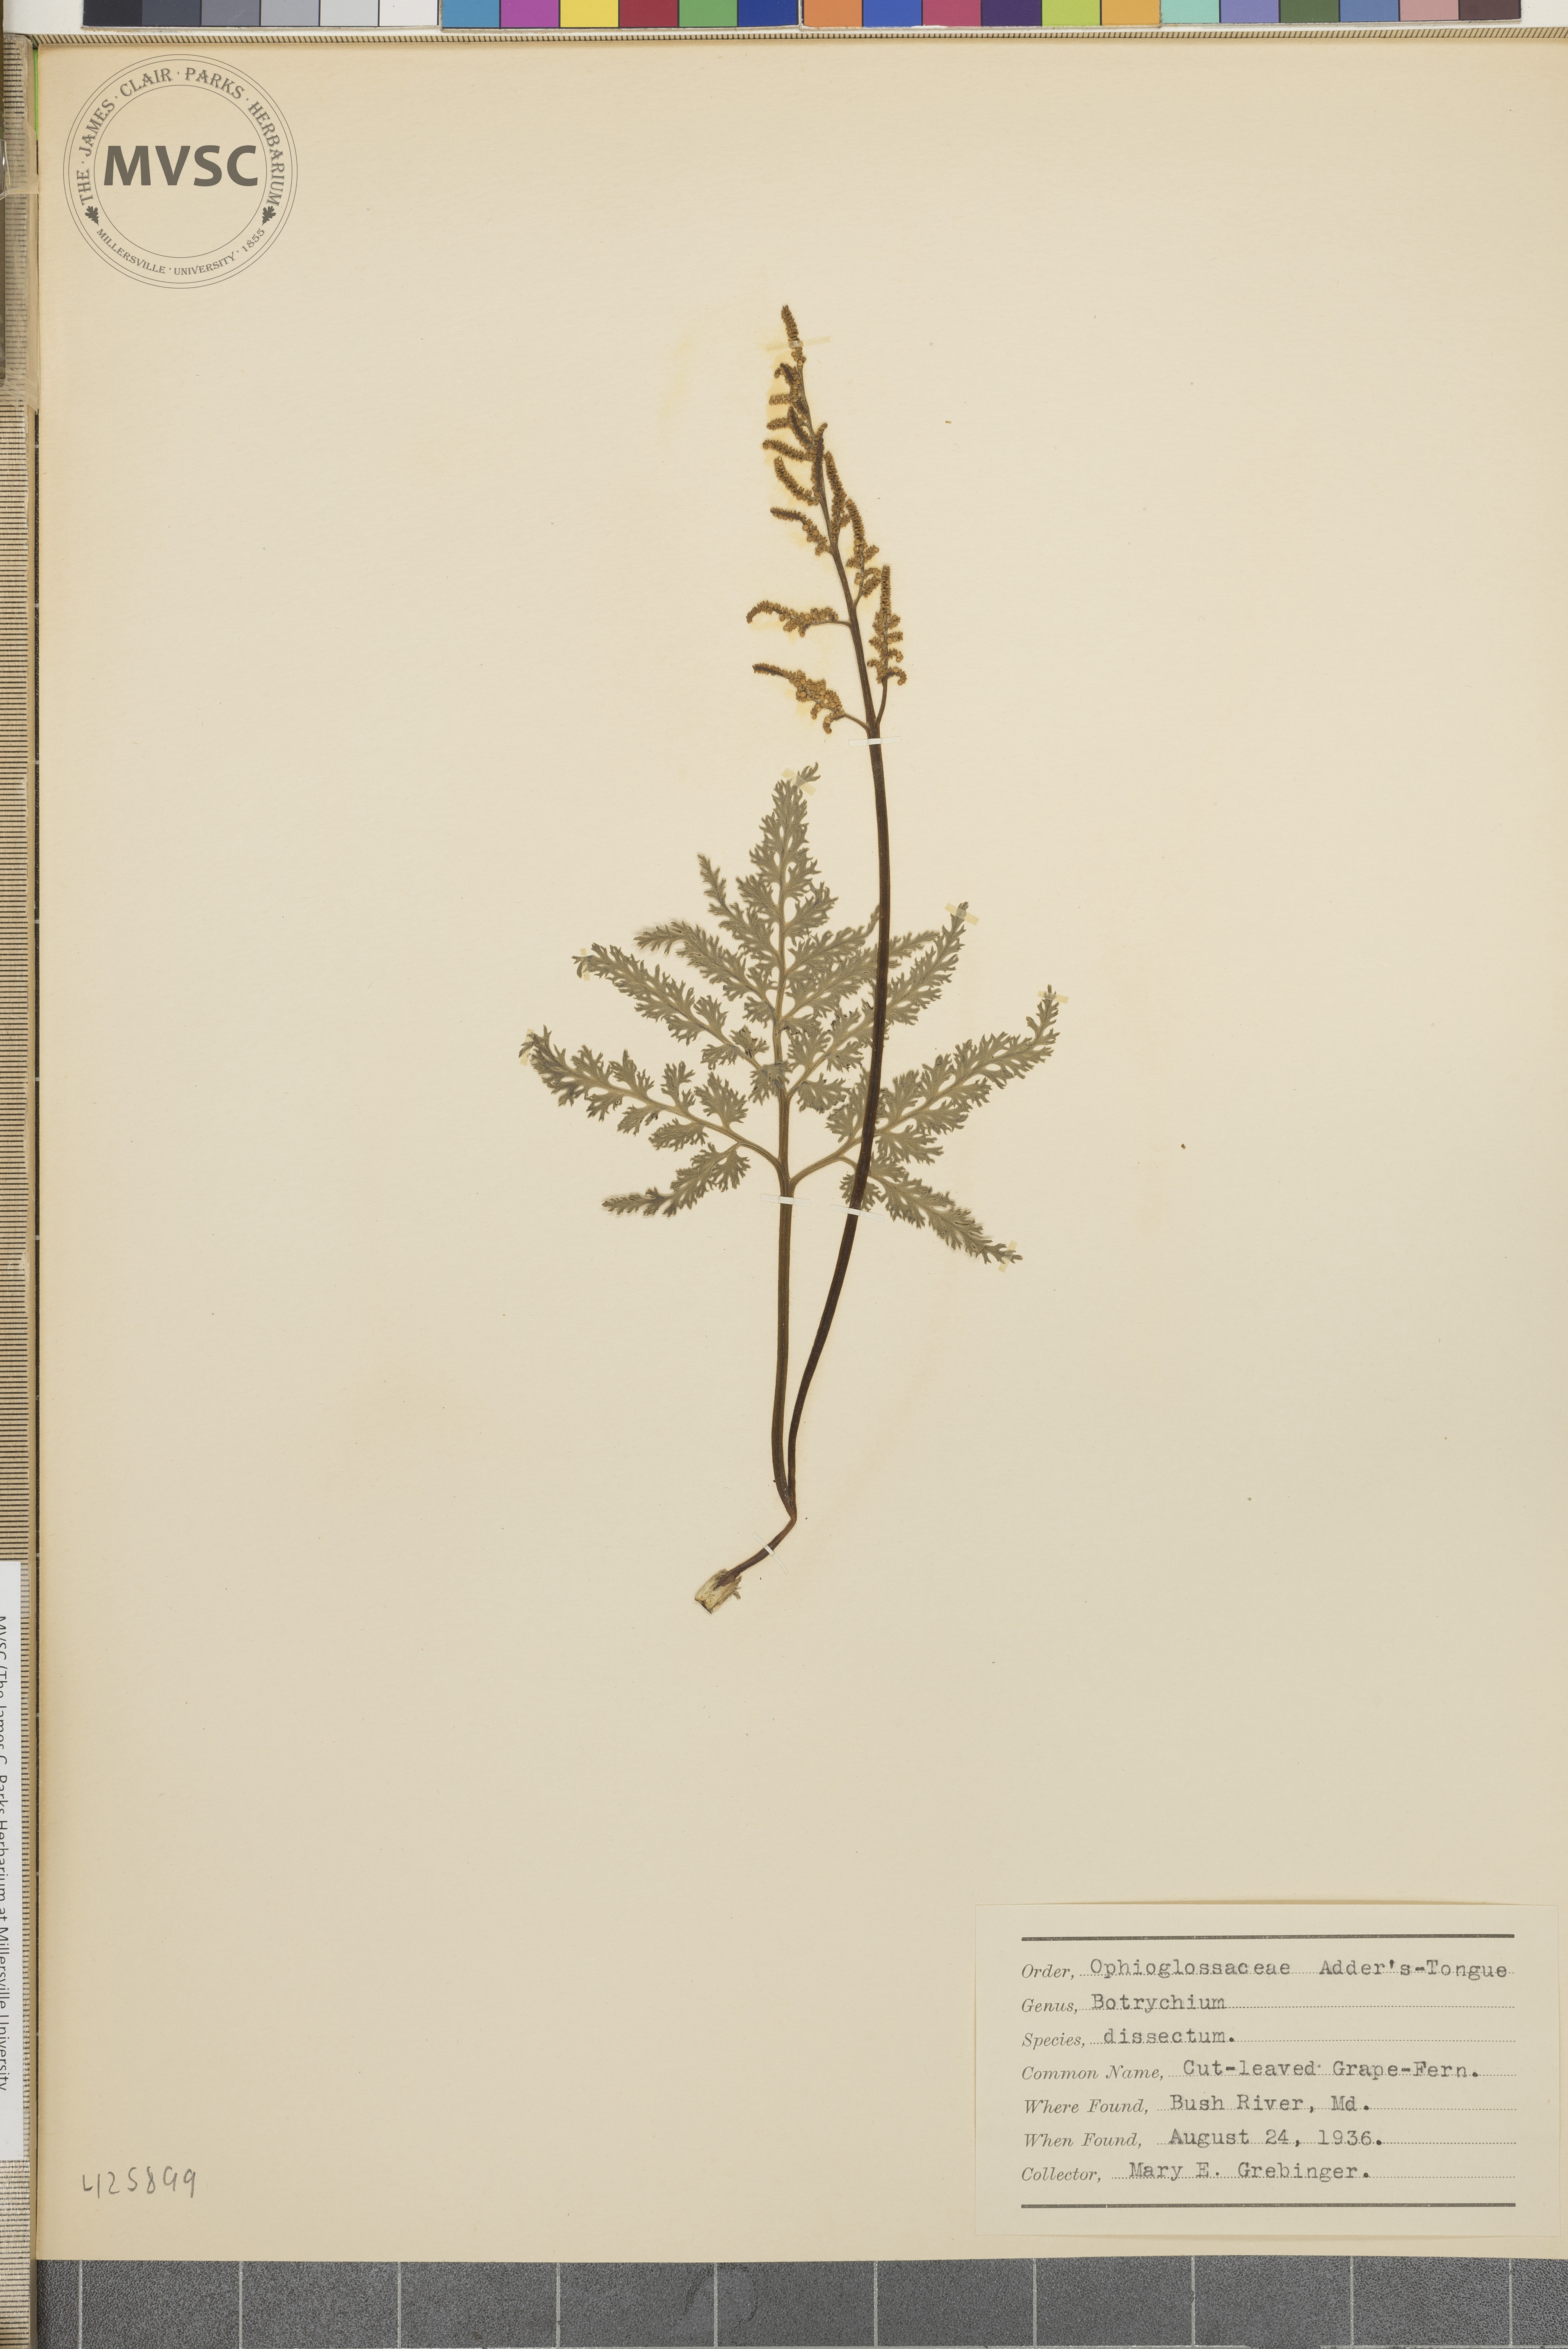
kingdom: Plantae
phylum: Tracheophyta
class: Polypodiopsida
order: Ophioglossales
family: Ophioglossaceae
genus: Sceptridium
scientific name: Sceptridium dissectum
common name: Cut-leaved grape-fern
